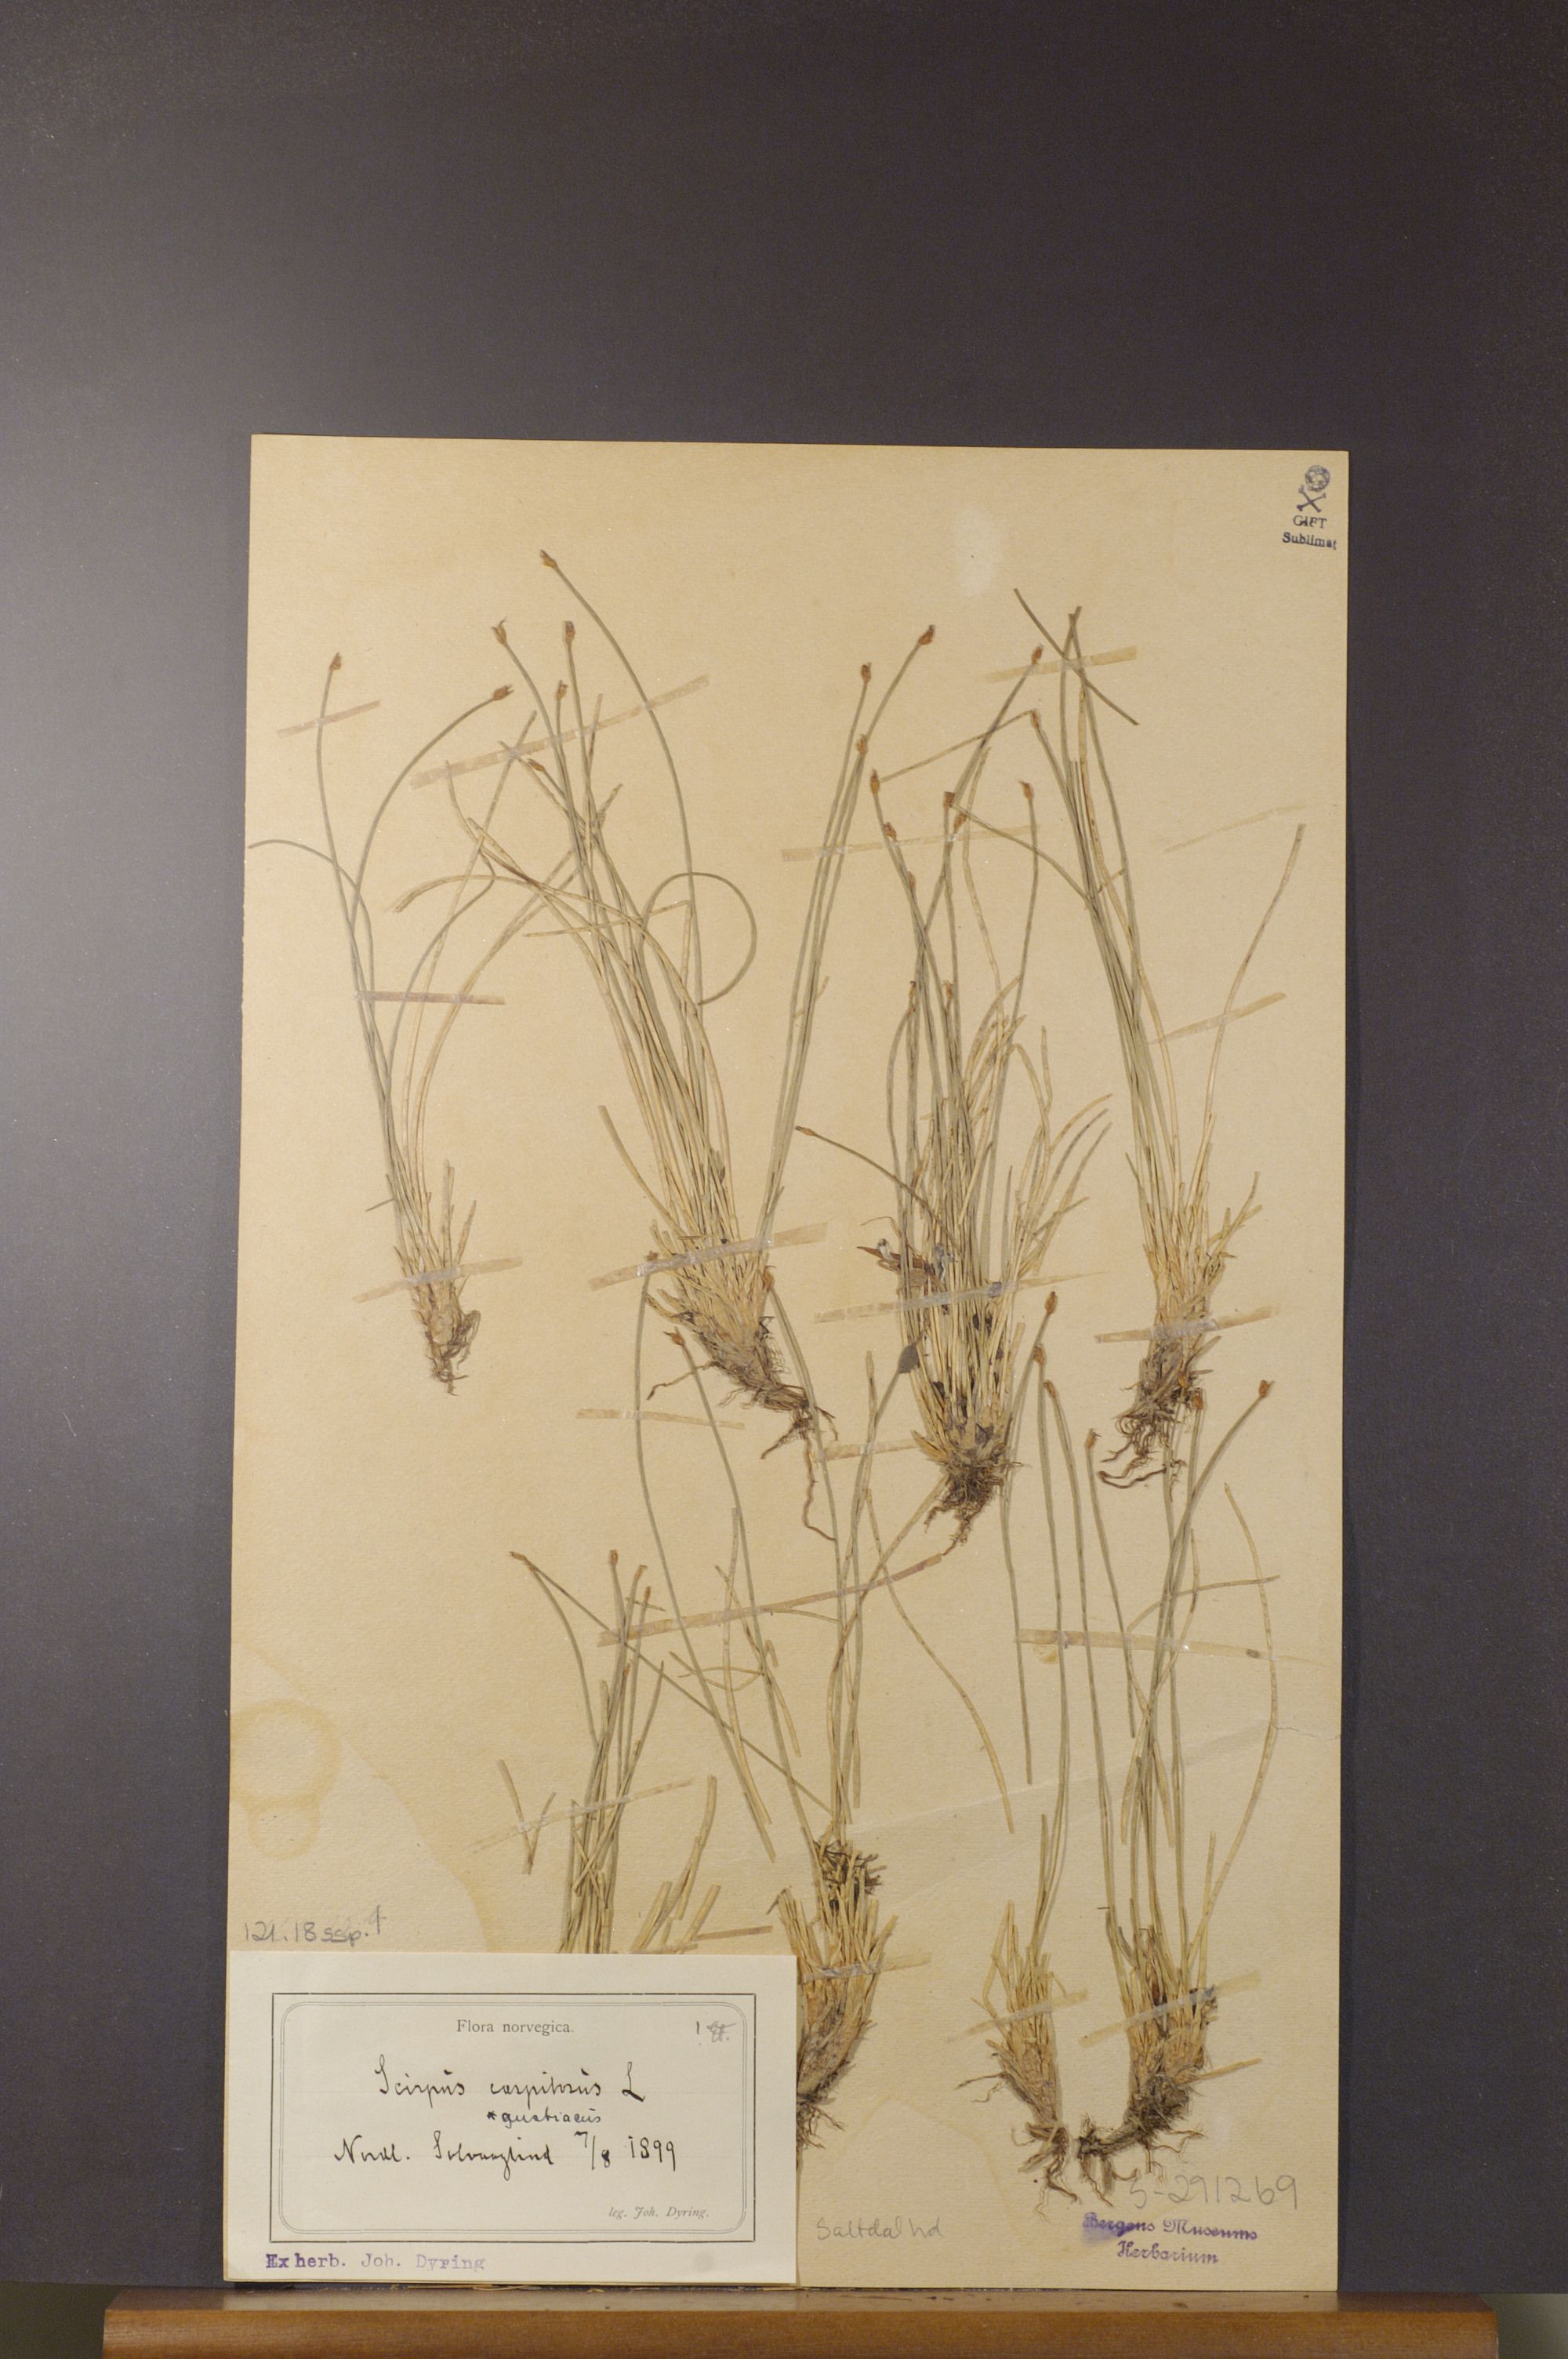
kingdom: Plantae
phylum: Tracheophyta
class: Liliopsida
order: Poales
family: Cyperaceae
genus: Trichophorum
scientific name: Trichophorum cespitosum
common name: Cespitose bulrush
